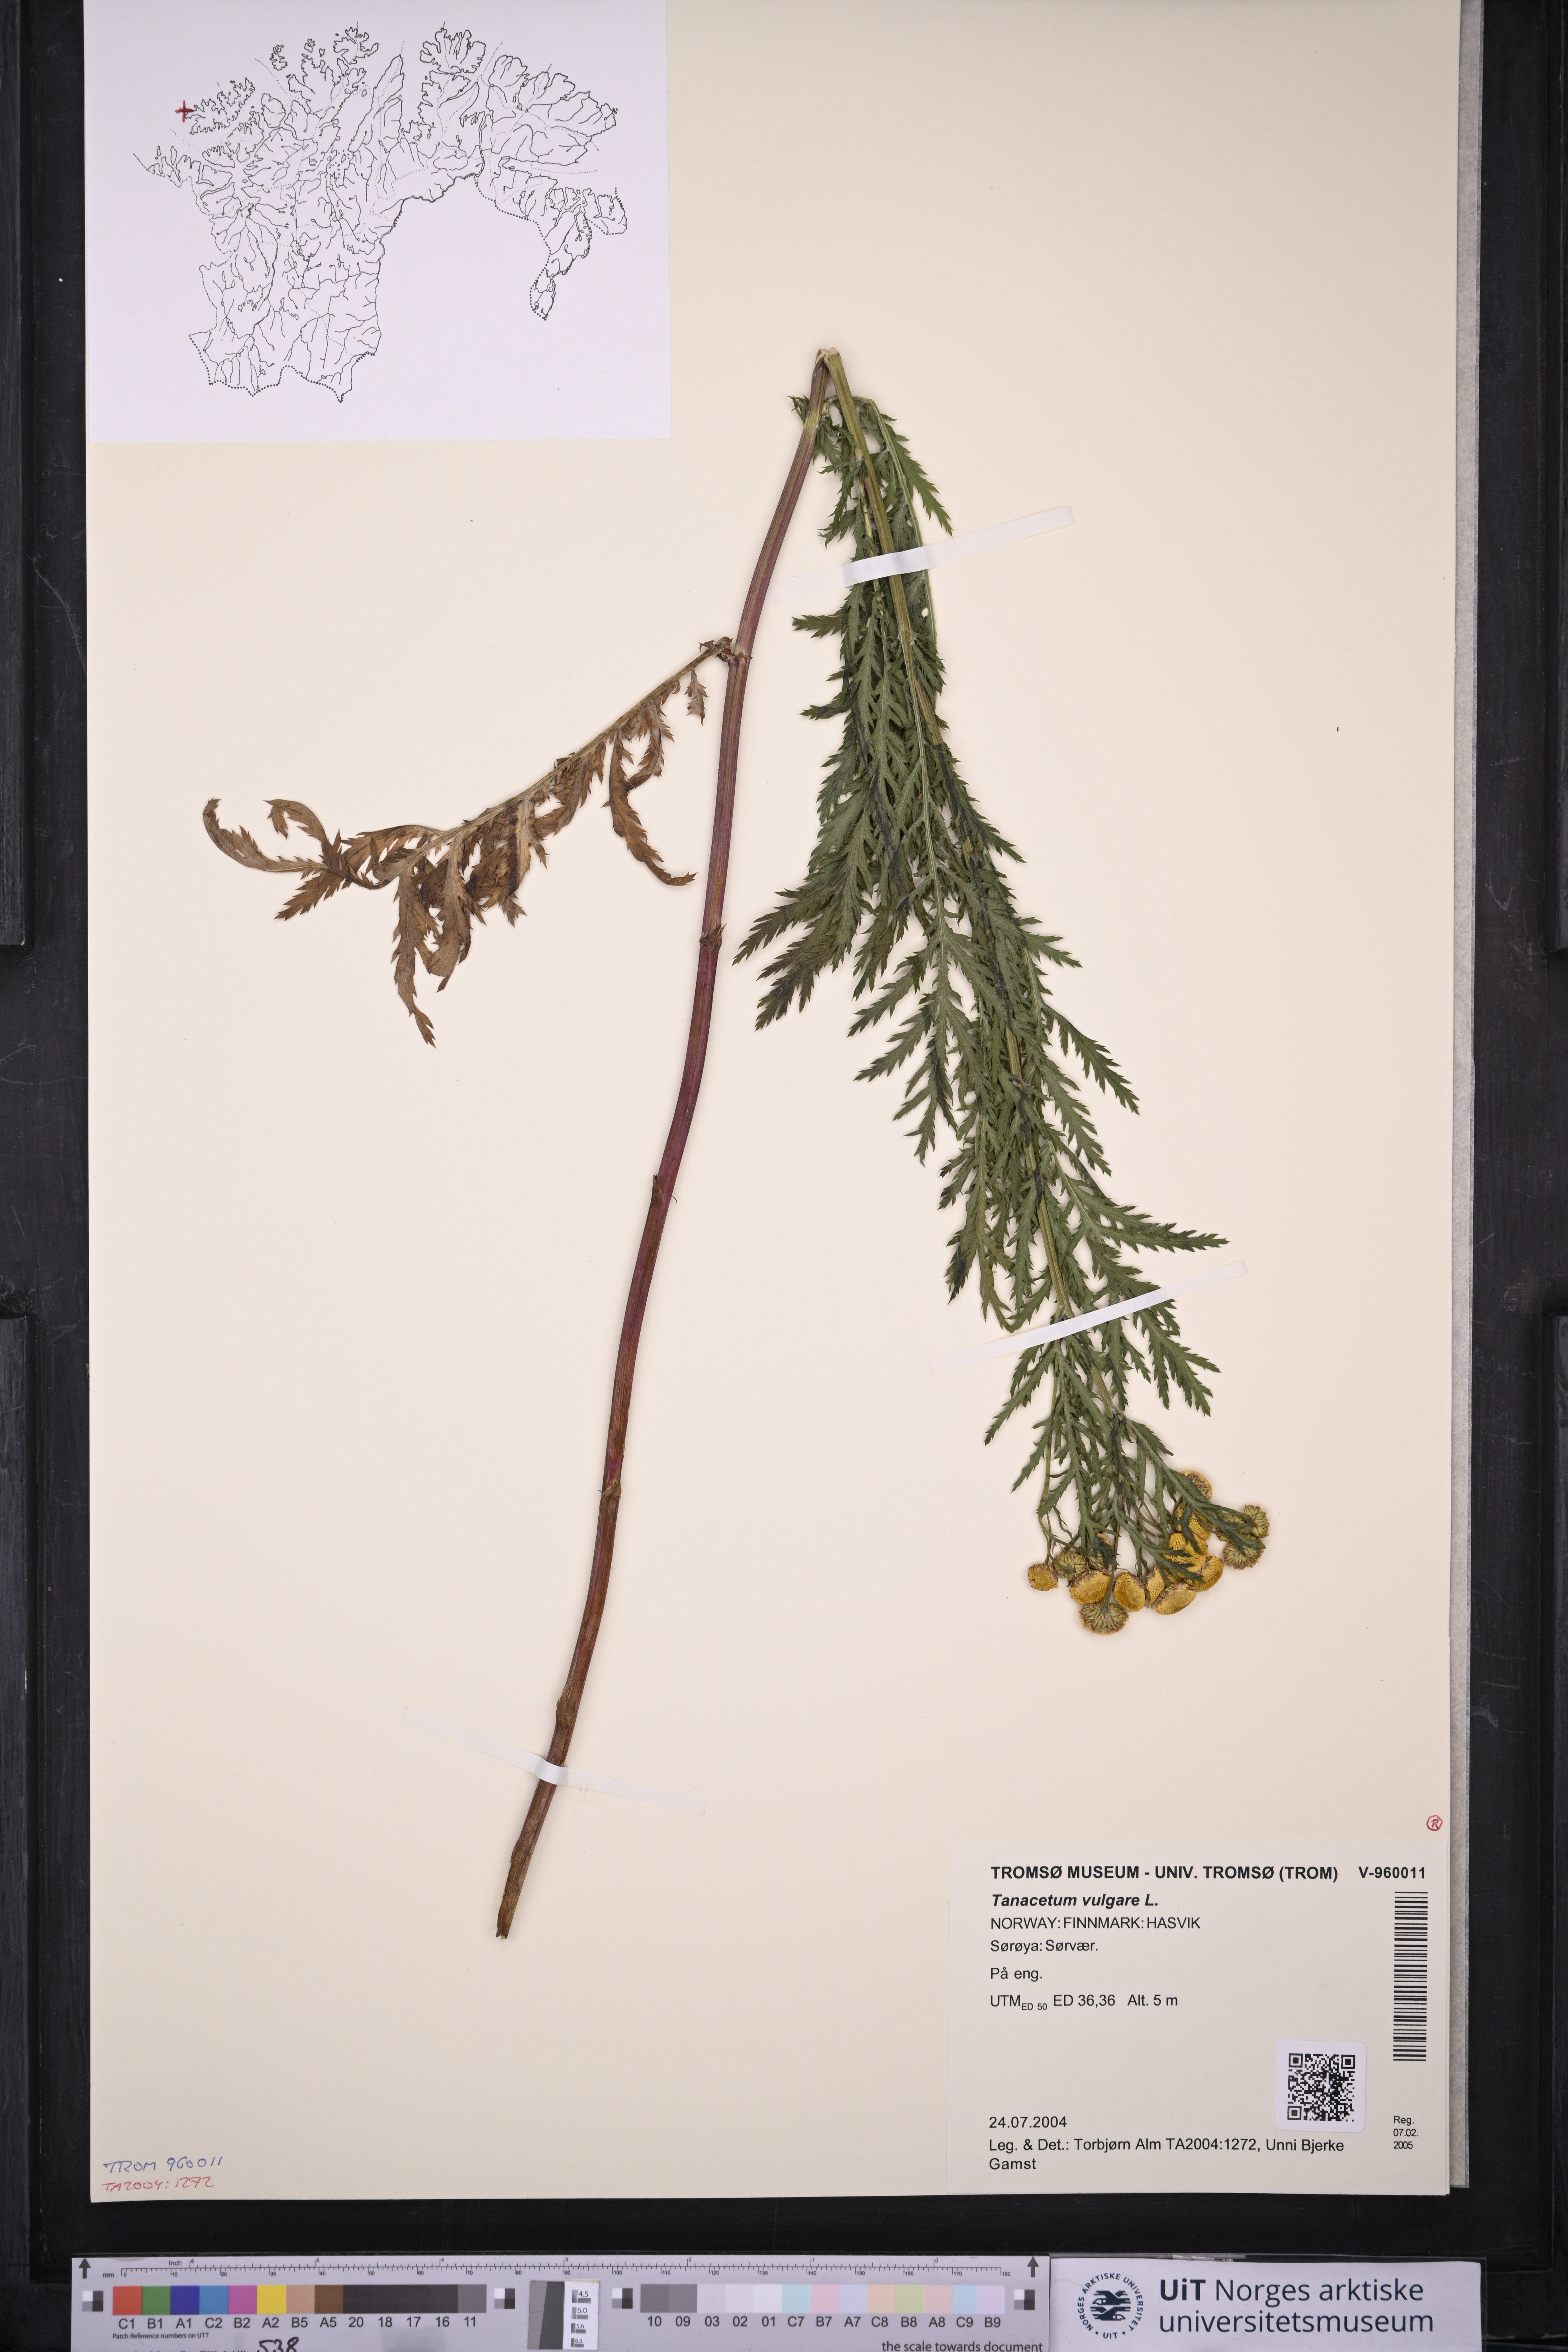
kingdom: Plantae
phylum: Tracheophyta
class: Magnoliopsida
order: Asterales
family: Asteraceae
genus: Tanacetum
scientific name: Tanacetum vulgare
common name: Common tansy
